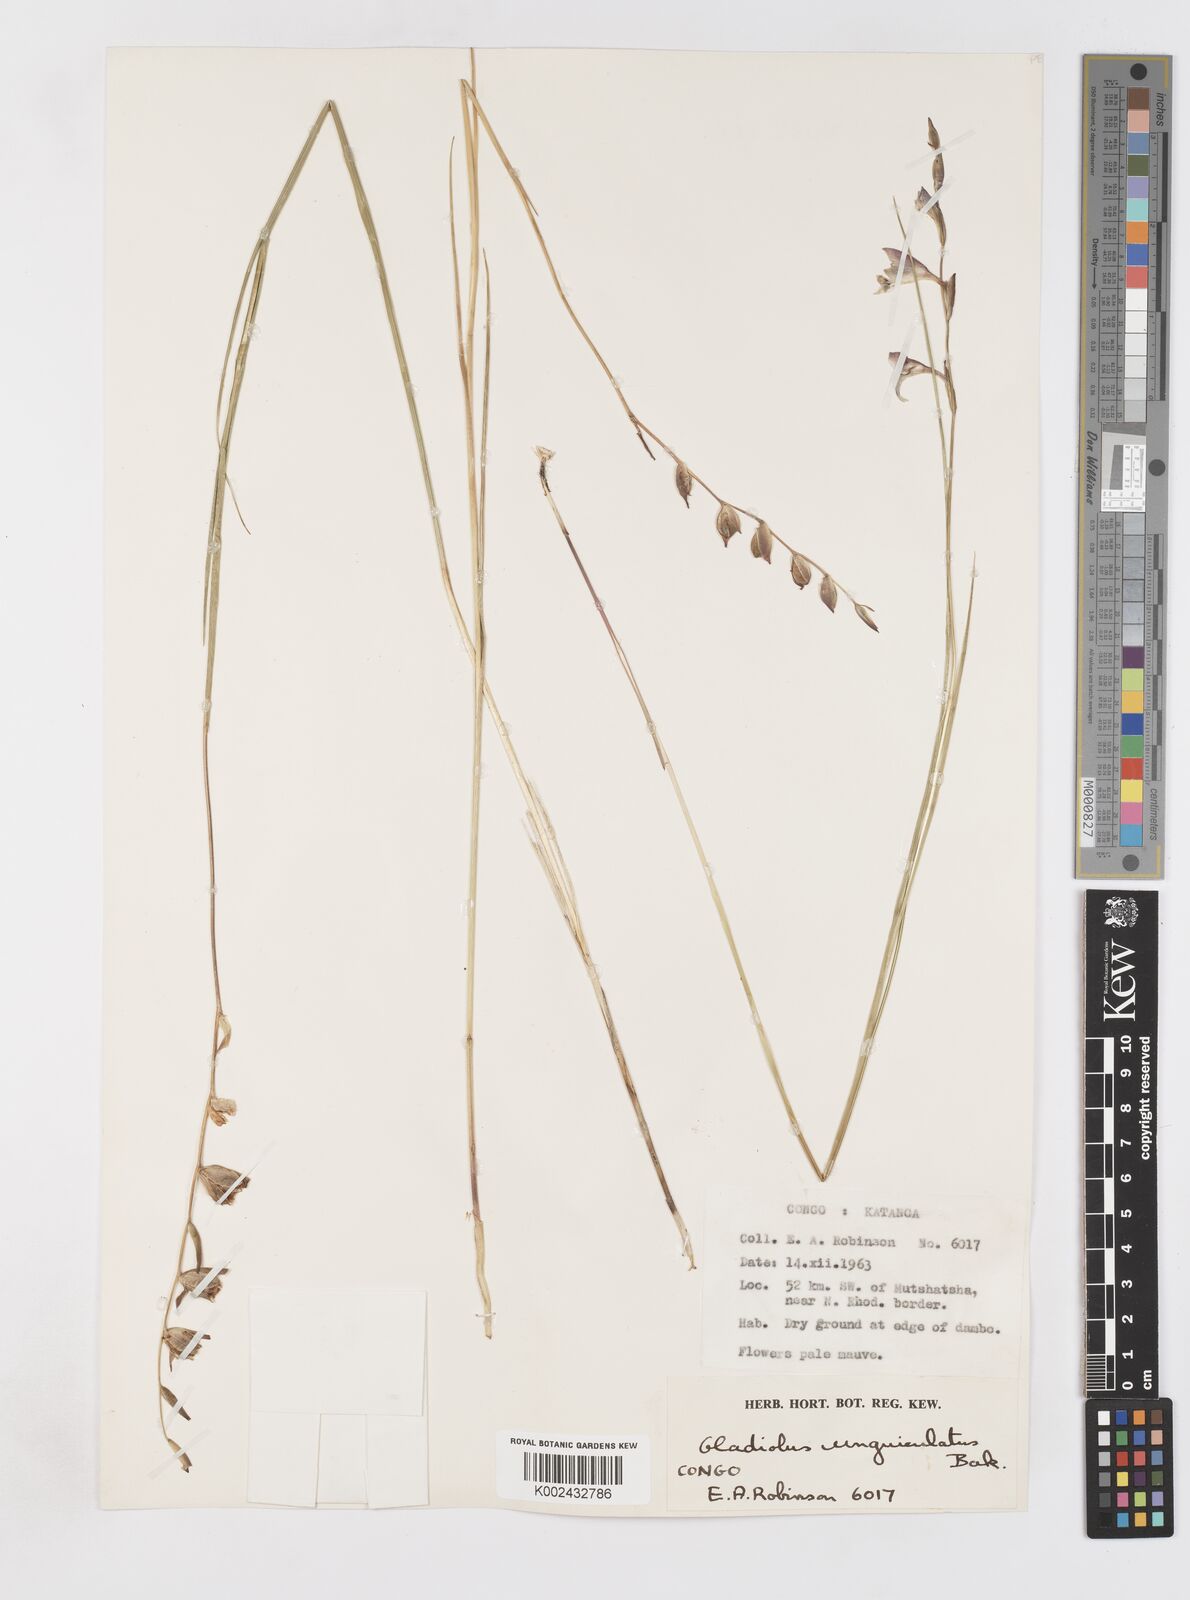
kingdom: Plantae
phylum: Tracheophyta
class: Liliopsida
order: Asparagales
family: Iridaceae
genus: Gladiolus
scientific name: Gladiolus unguiculatus
